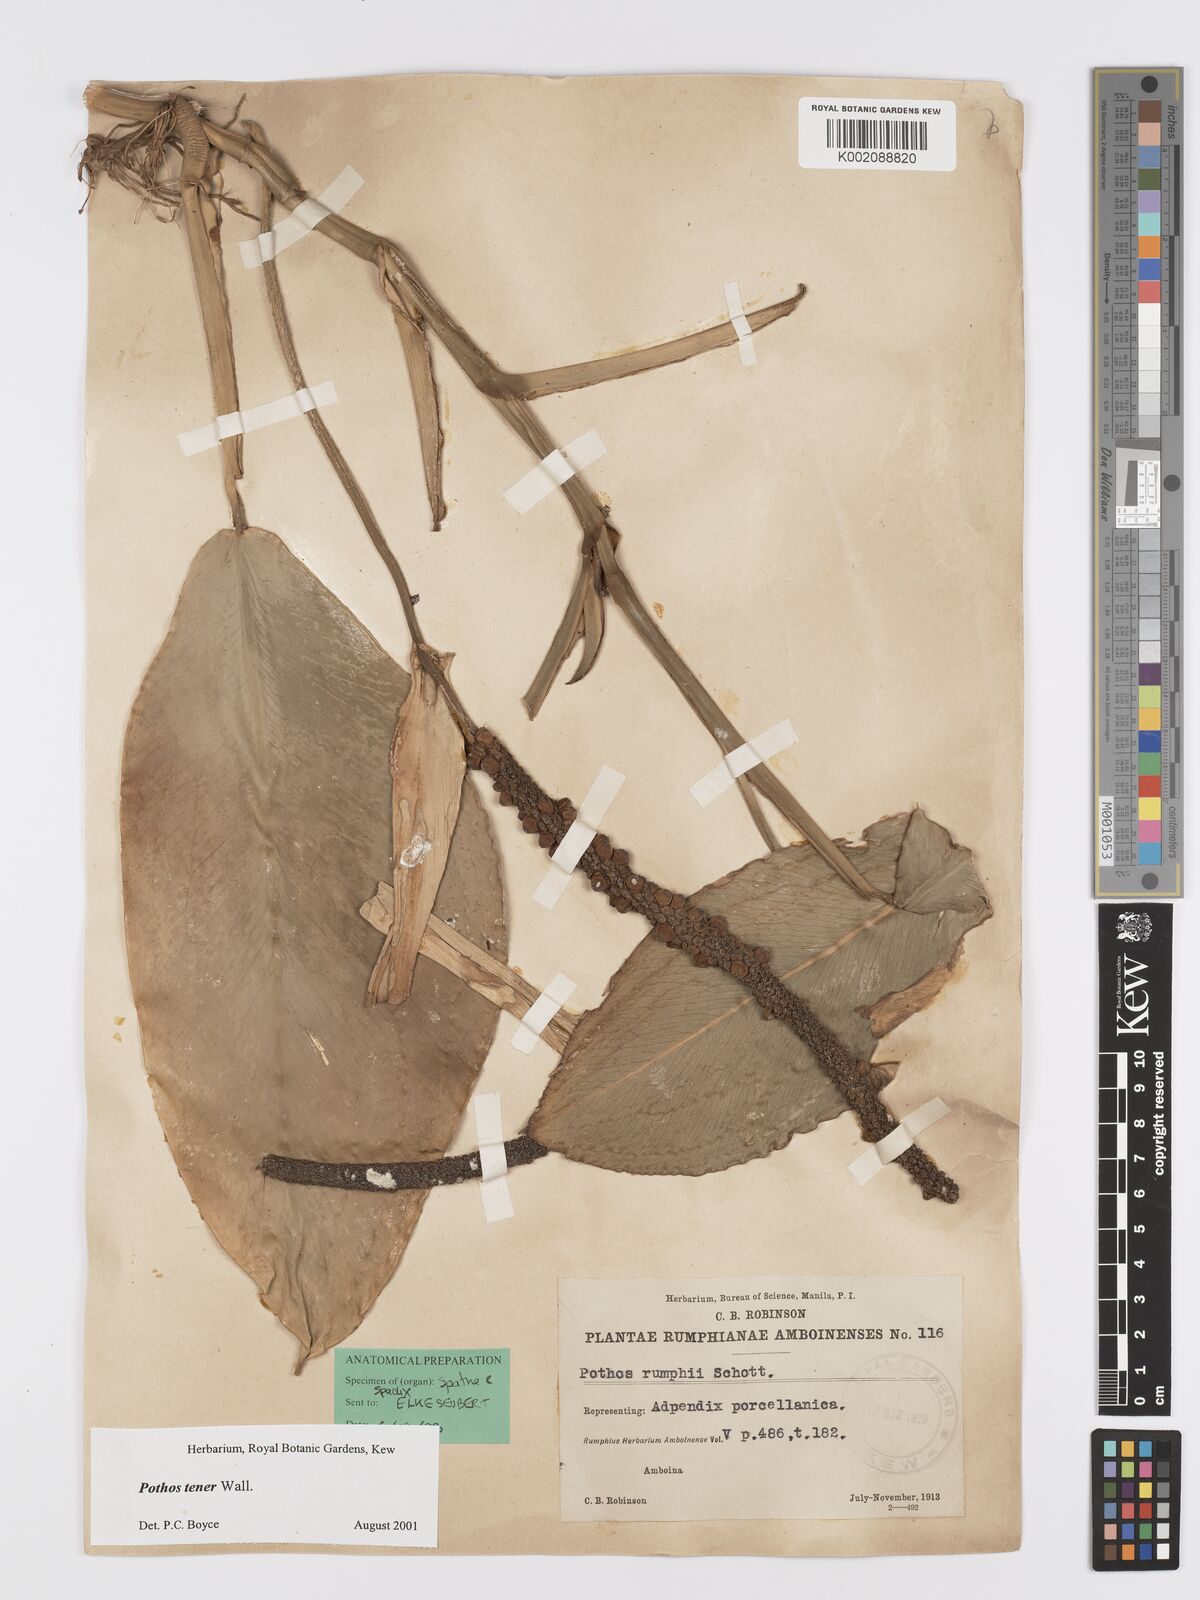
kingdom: Plantae
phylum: Tracheophyta
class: Liliopsida
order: Alismatales
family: Araceae
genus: Pothos
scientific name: Pothos tener
